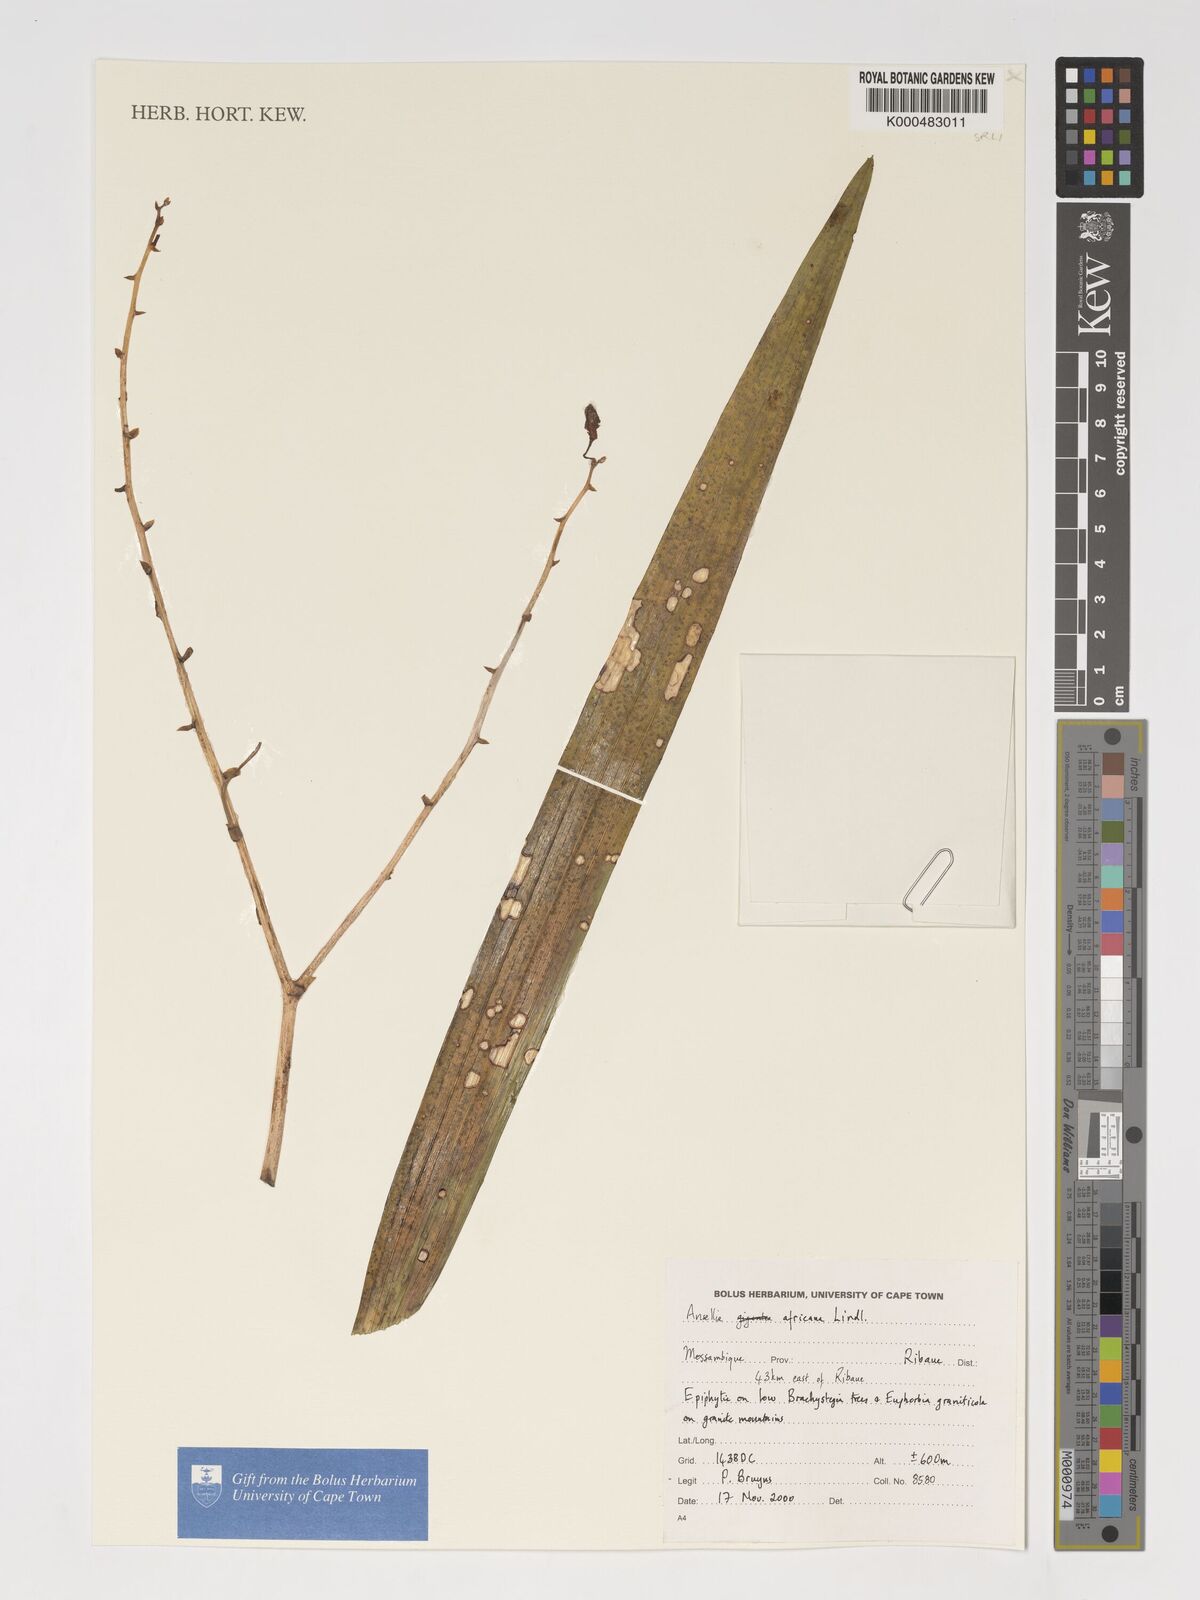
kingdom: Plantae
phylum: Tracheophyta
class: Liliopsida
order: Asparagales
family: Orchidaceae
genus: Ansellia
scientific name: Ansellia africana
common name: African ansellia
